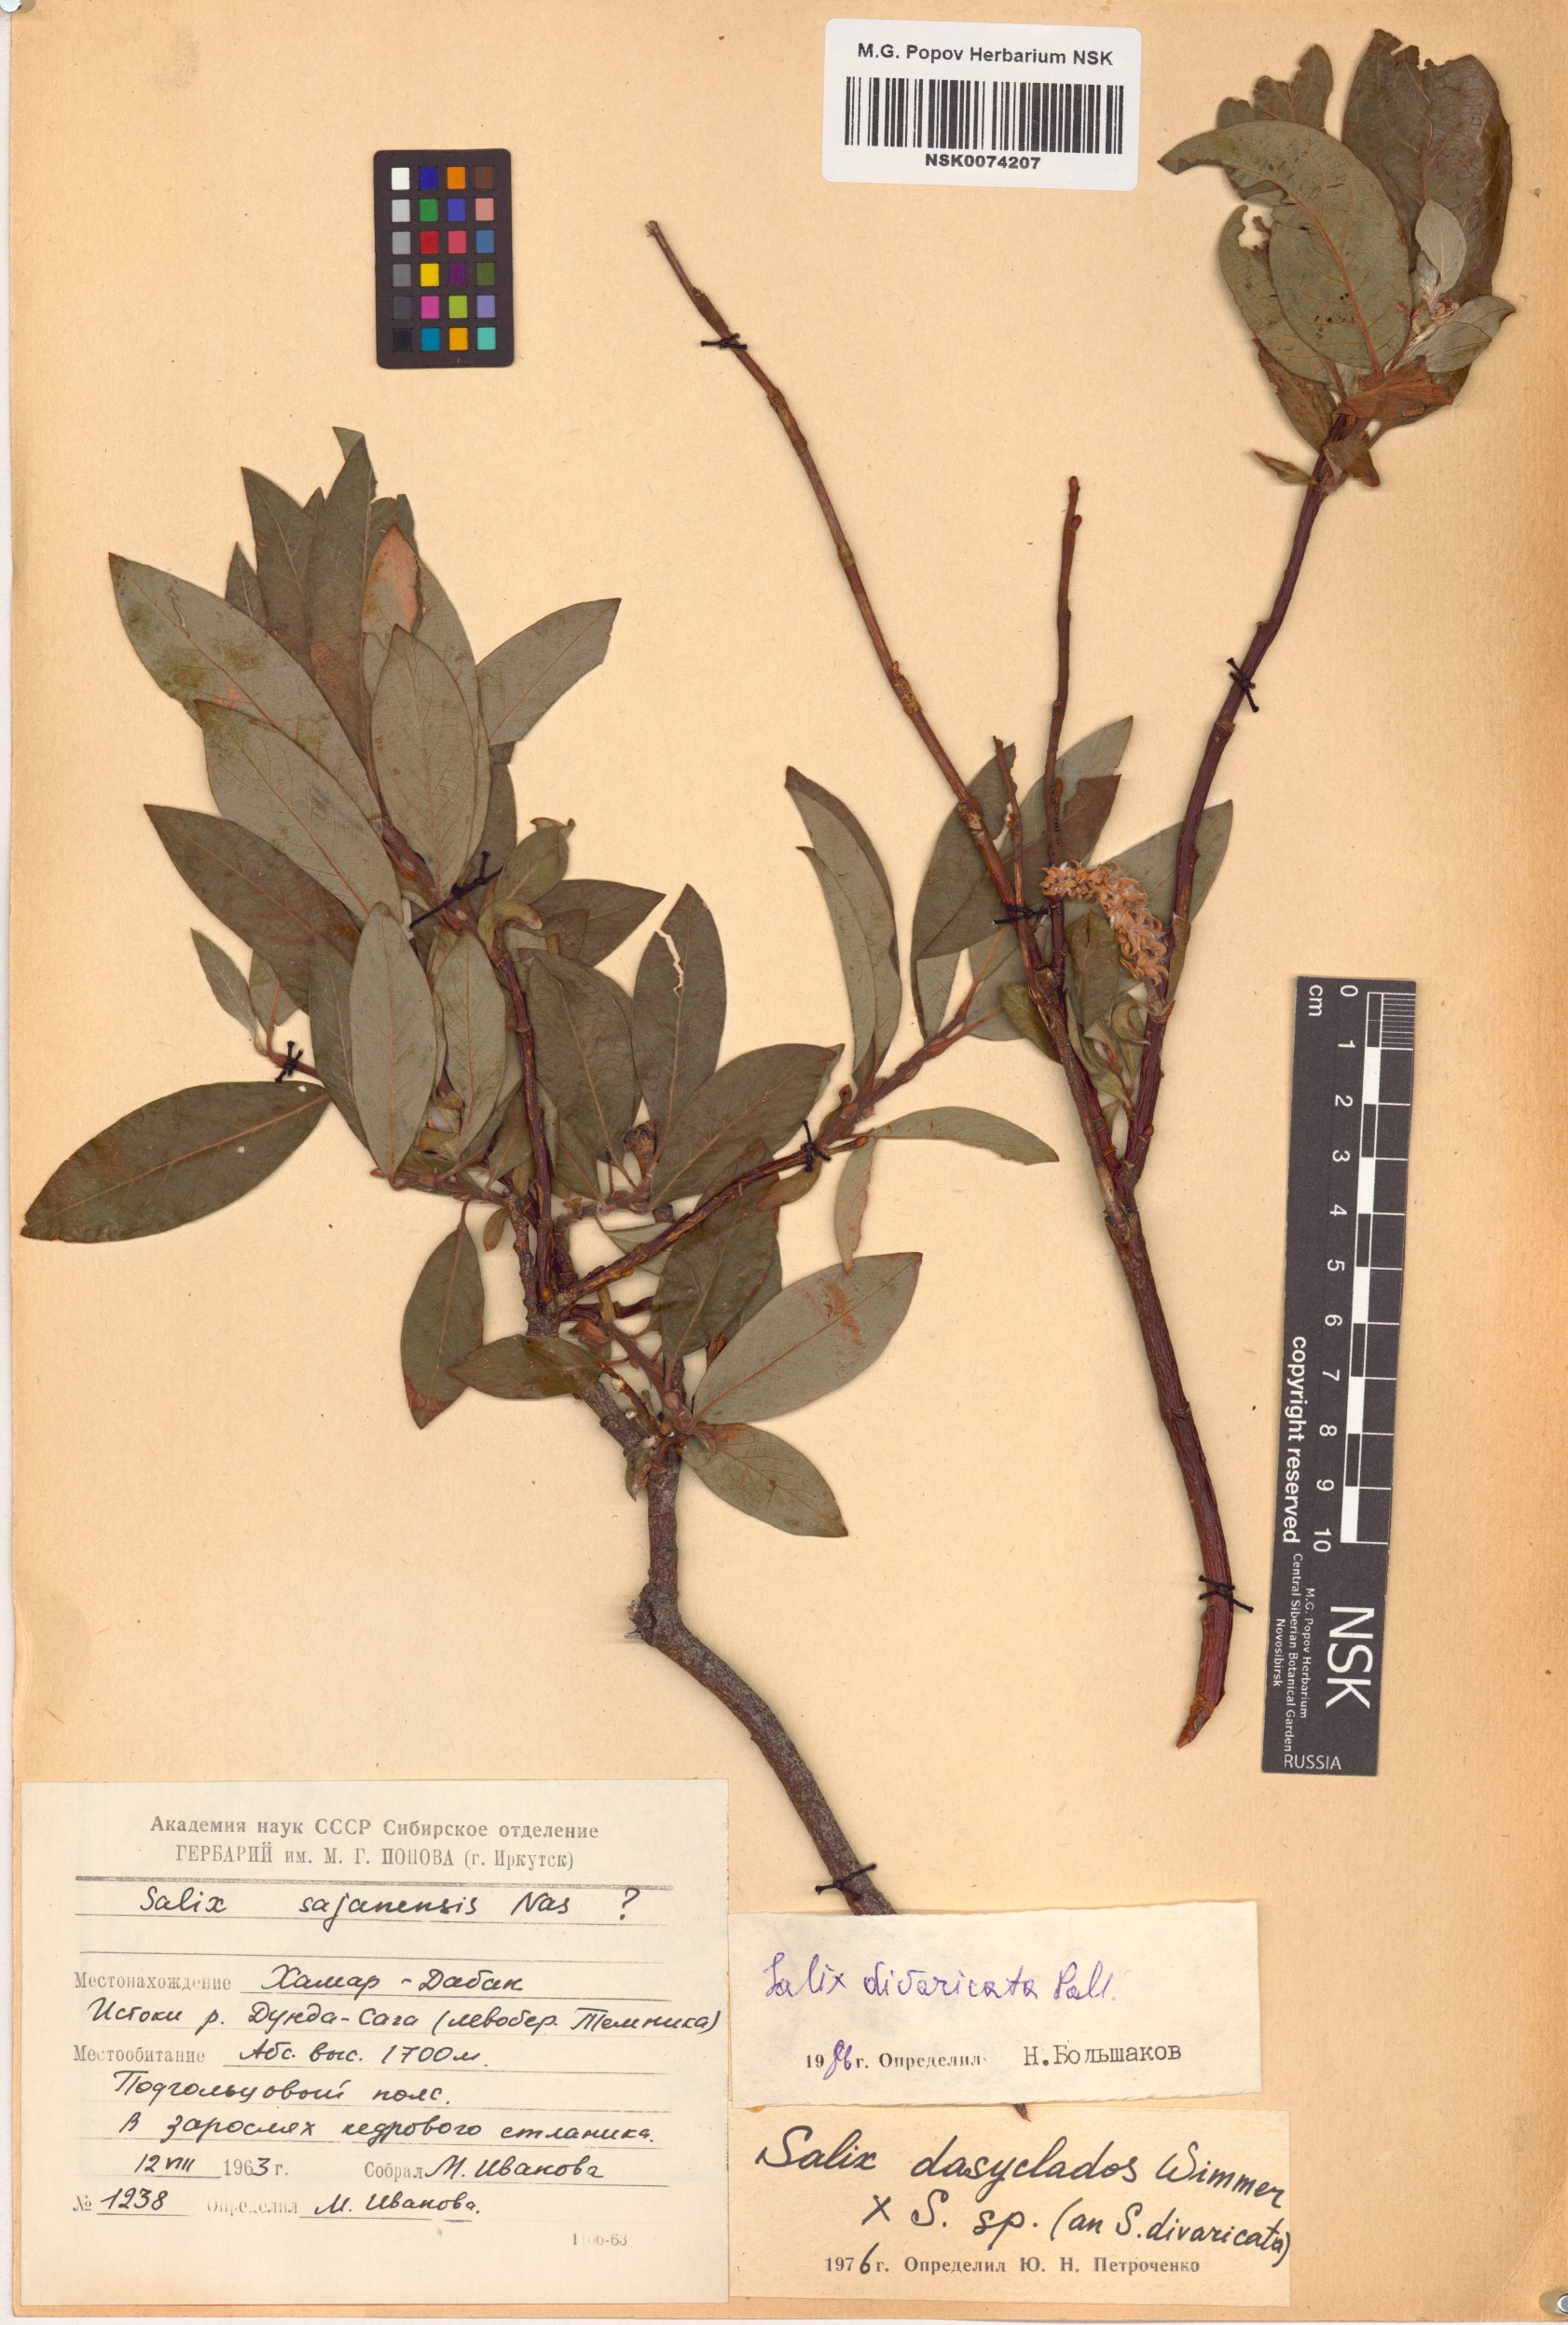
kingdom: Plantae
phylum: Tracheophyta
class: Magnoliopsida
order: Malpighiales
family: Salicaceae
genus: Salix
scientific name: Salix divaricata
